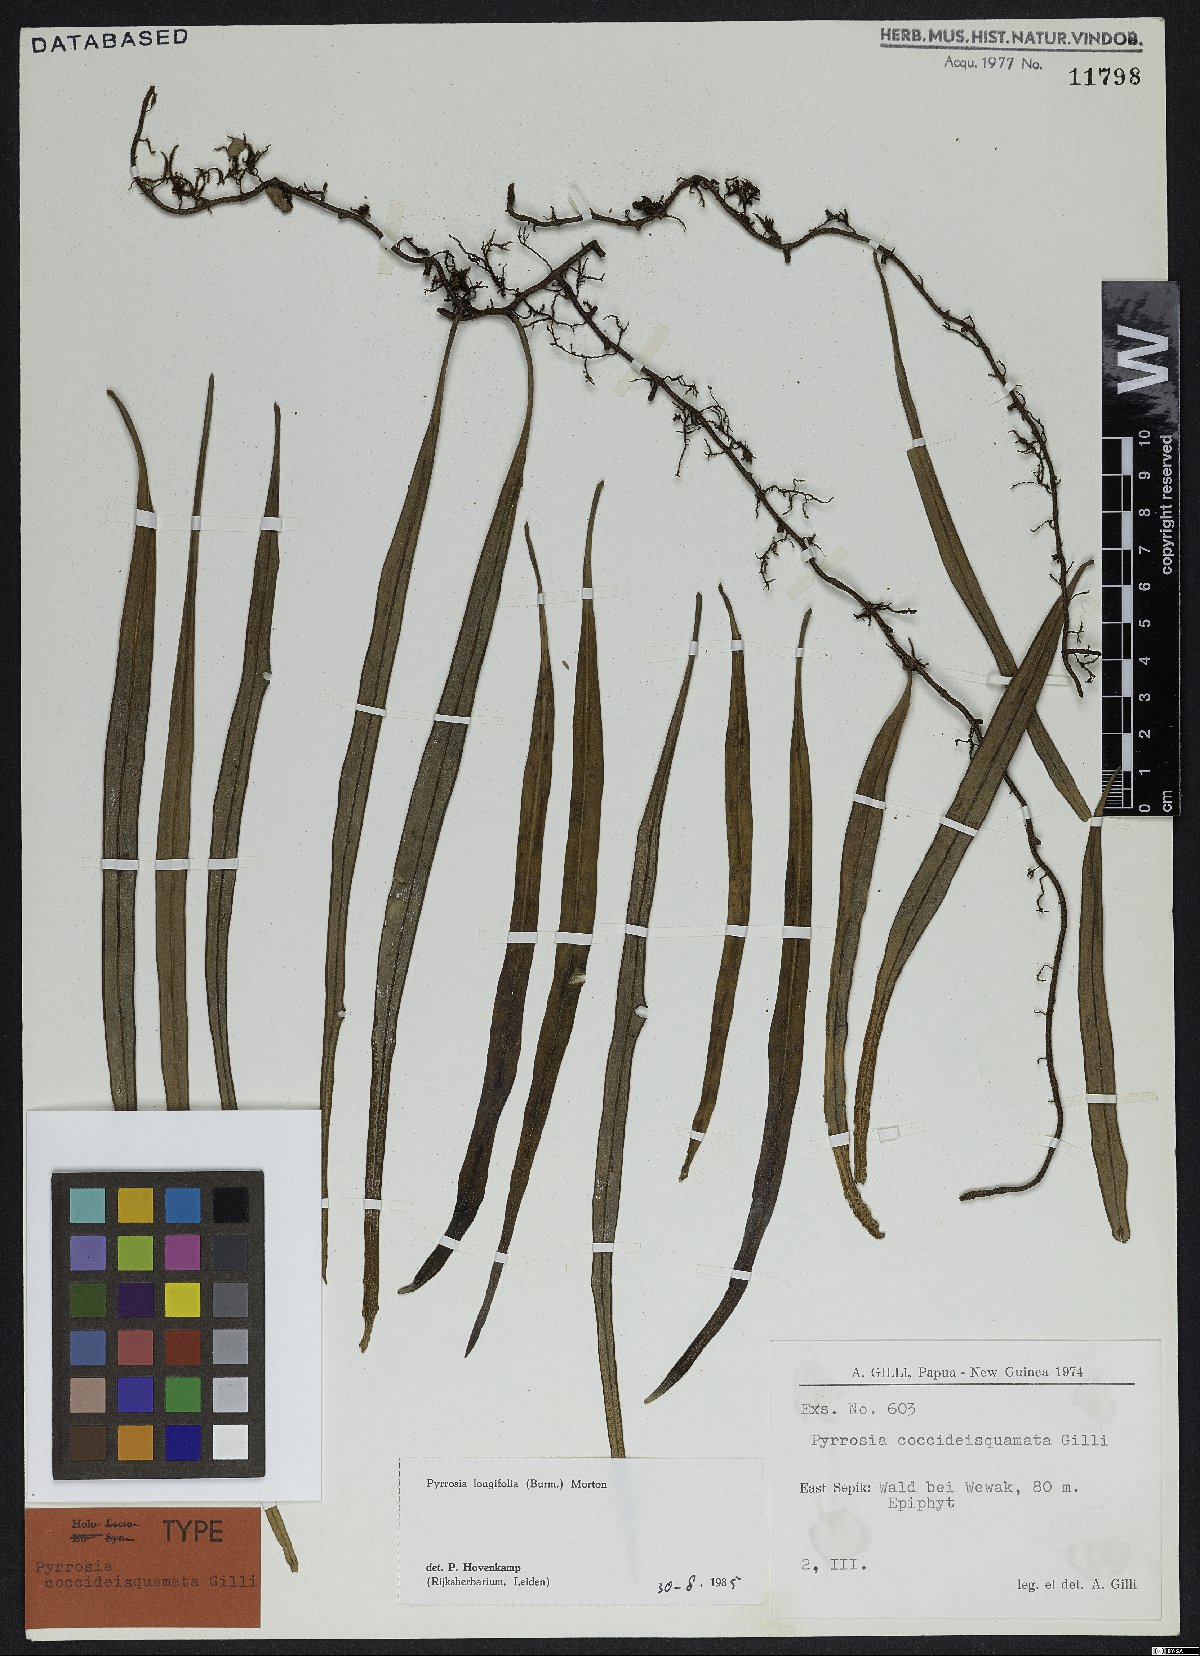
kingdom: Plantae
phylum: Tracheophyta
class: Polypodiopsida
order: Polypodiales
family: Polypodiaceae
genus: Pyrrosia
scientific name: Pyrrosia longifolia
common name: Long-leaved felt fern
